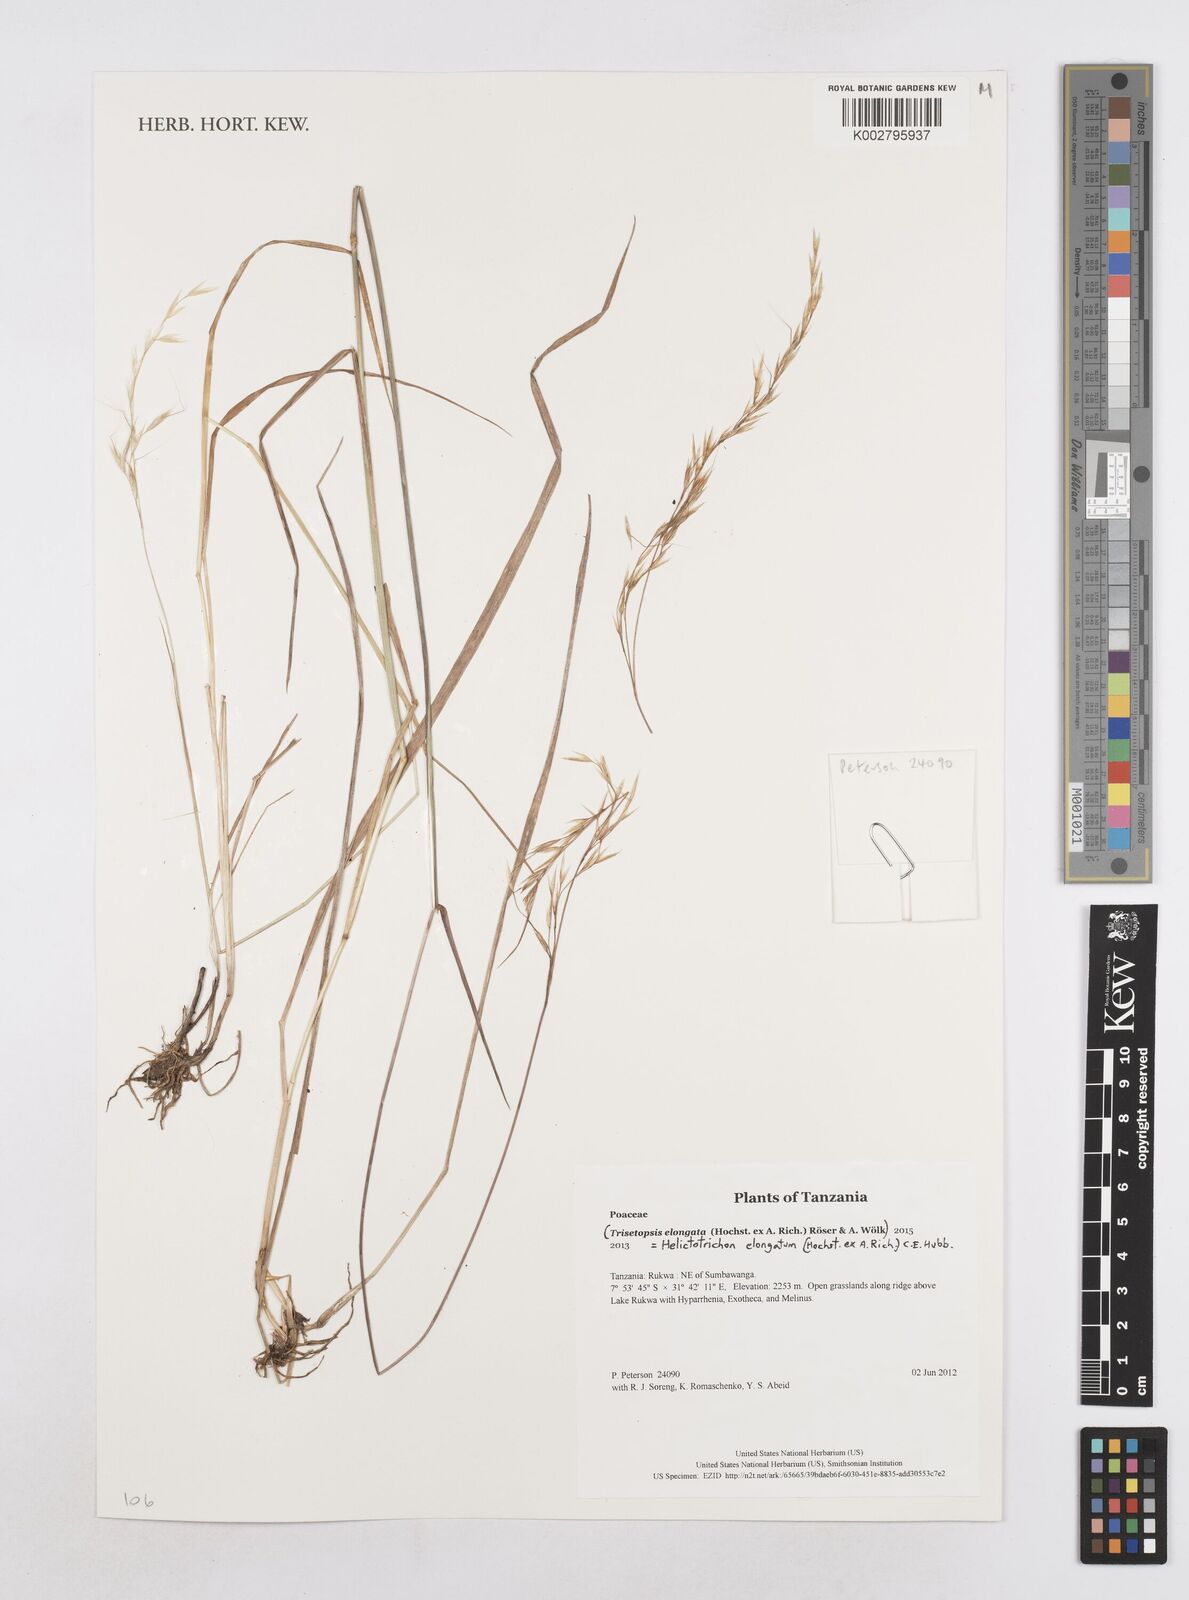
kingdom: Plantae
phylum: Tracheophyta
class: Liliopsida
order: Poales
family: Poaceae
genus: Trisetopsis
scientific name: Trisetopsis elongata
